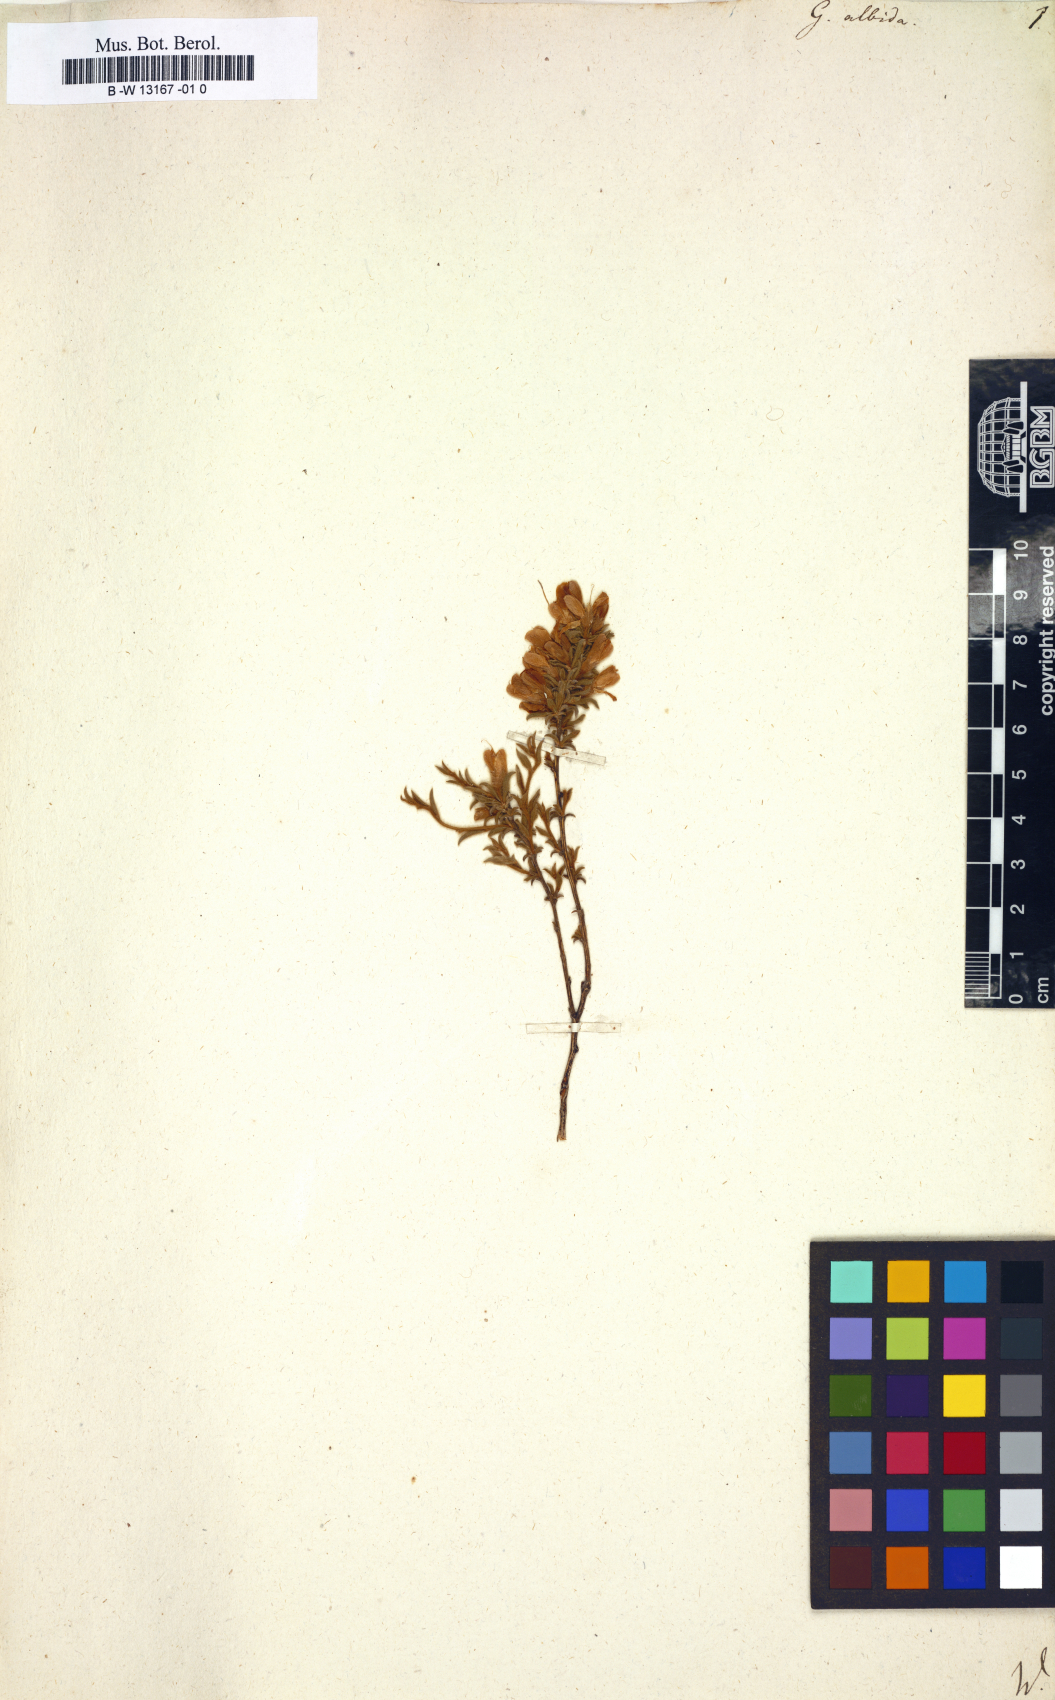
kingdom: Plantae
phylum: Tracheophyta
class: Magnoliopsida
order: Fabales
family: Fabaceae
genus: Genista
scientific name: Genista albida
